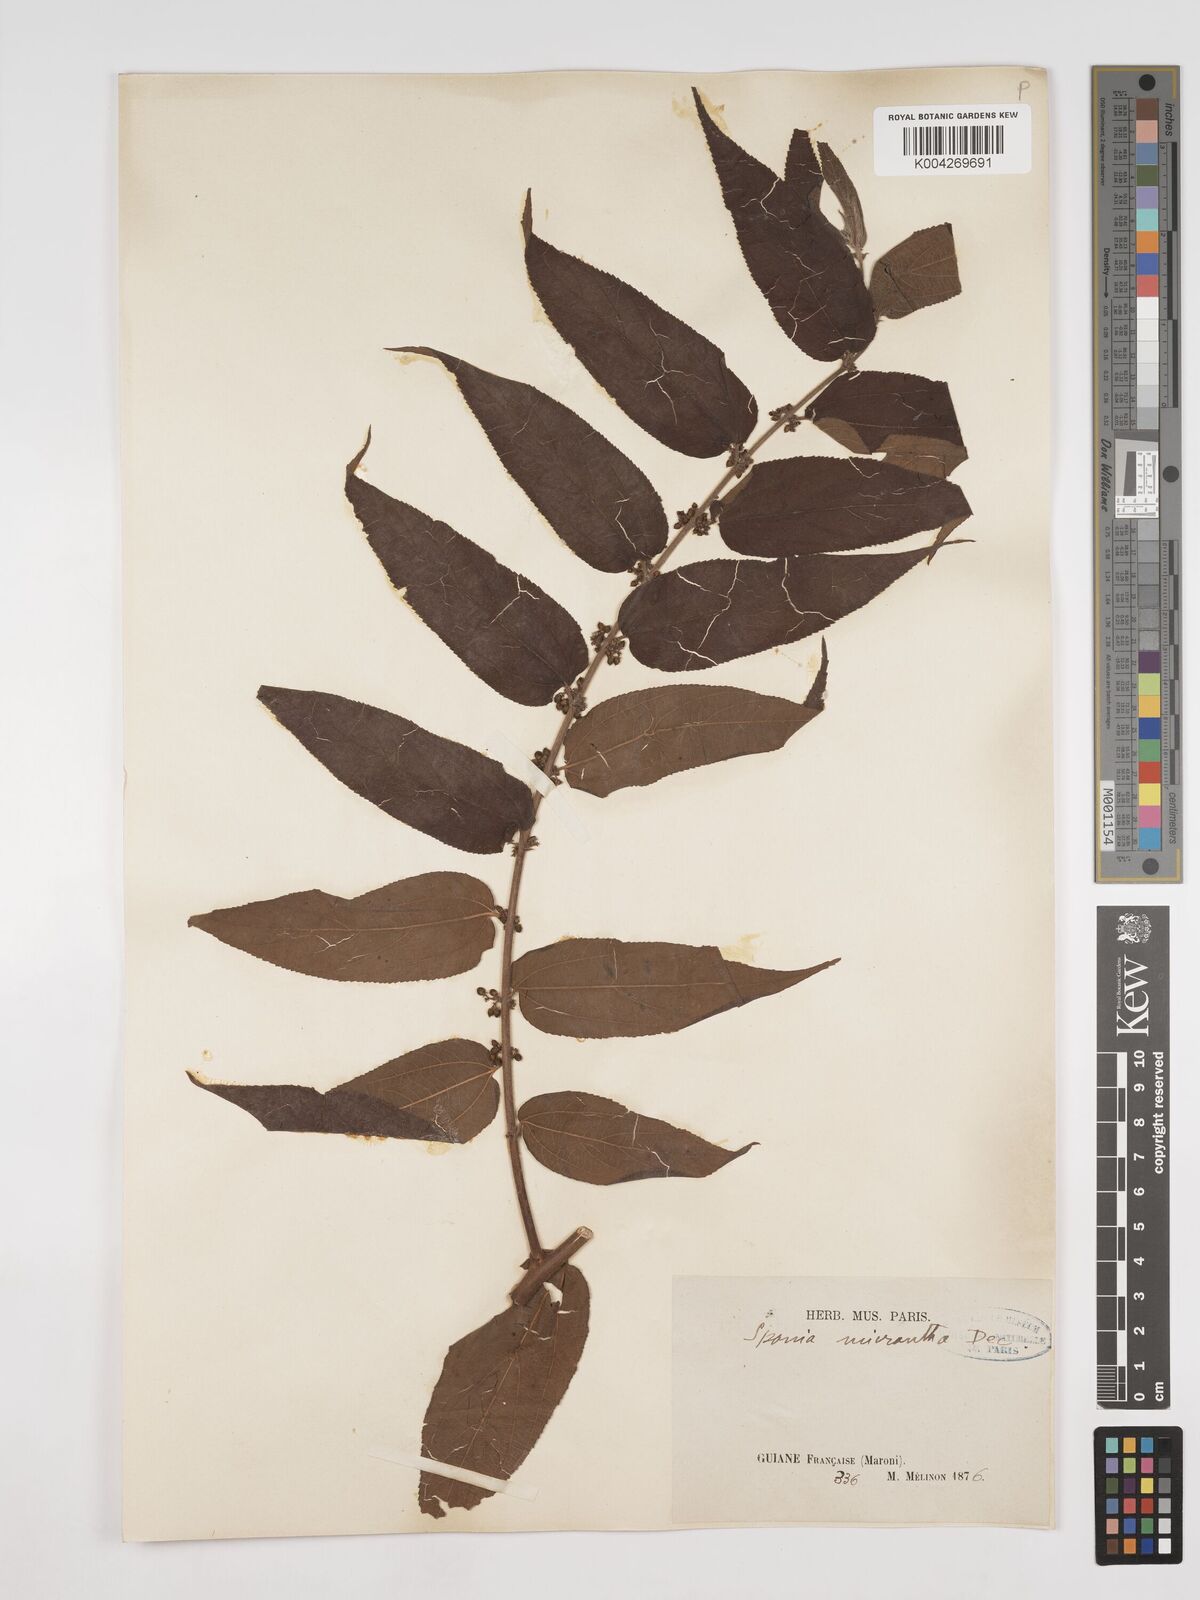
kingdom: Plantae
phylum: Tracheophyta
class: Magnoliopsida
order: Rosales
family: Cannabaceae
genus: Trema
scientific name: Trema micranthum
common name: Jamaican nettletree
